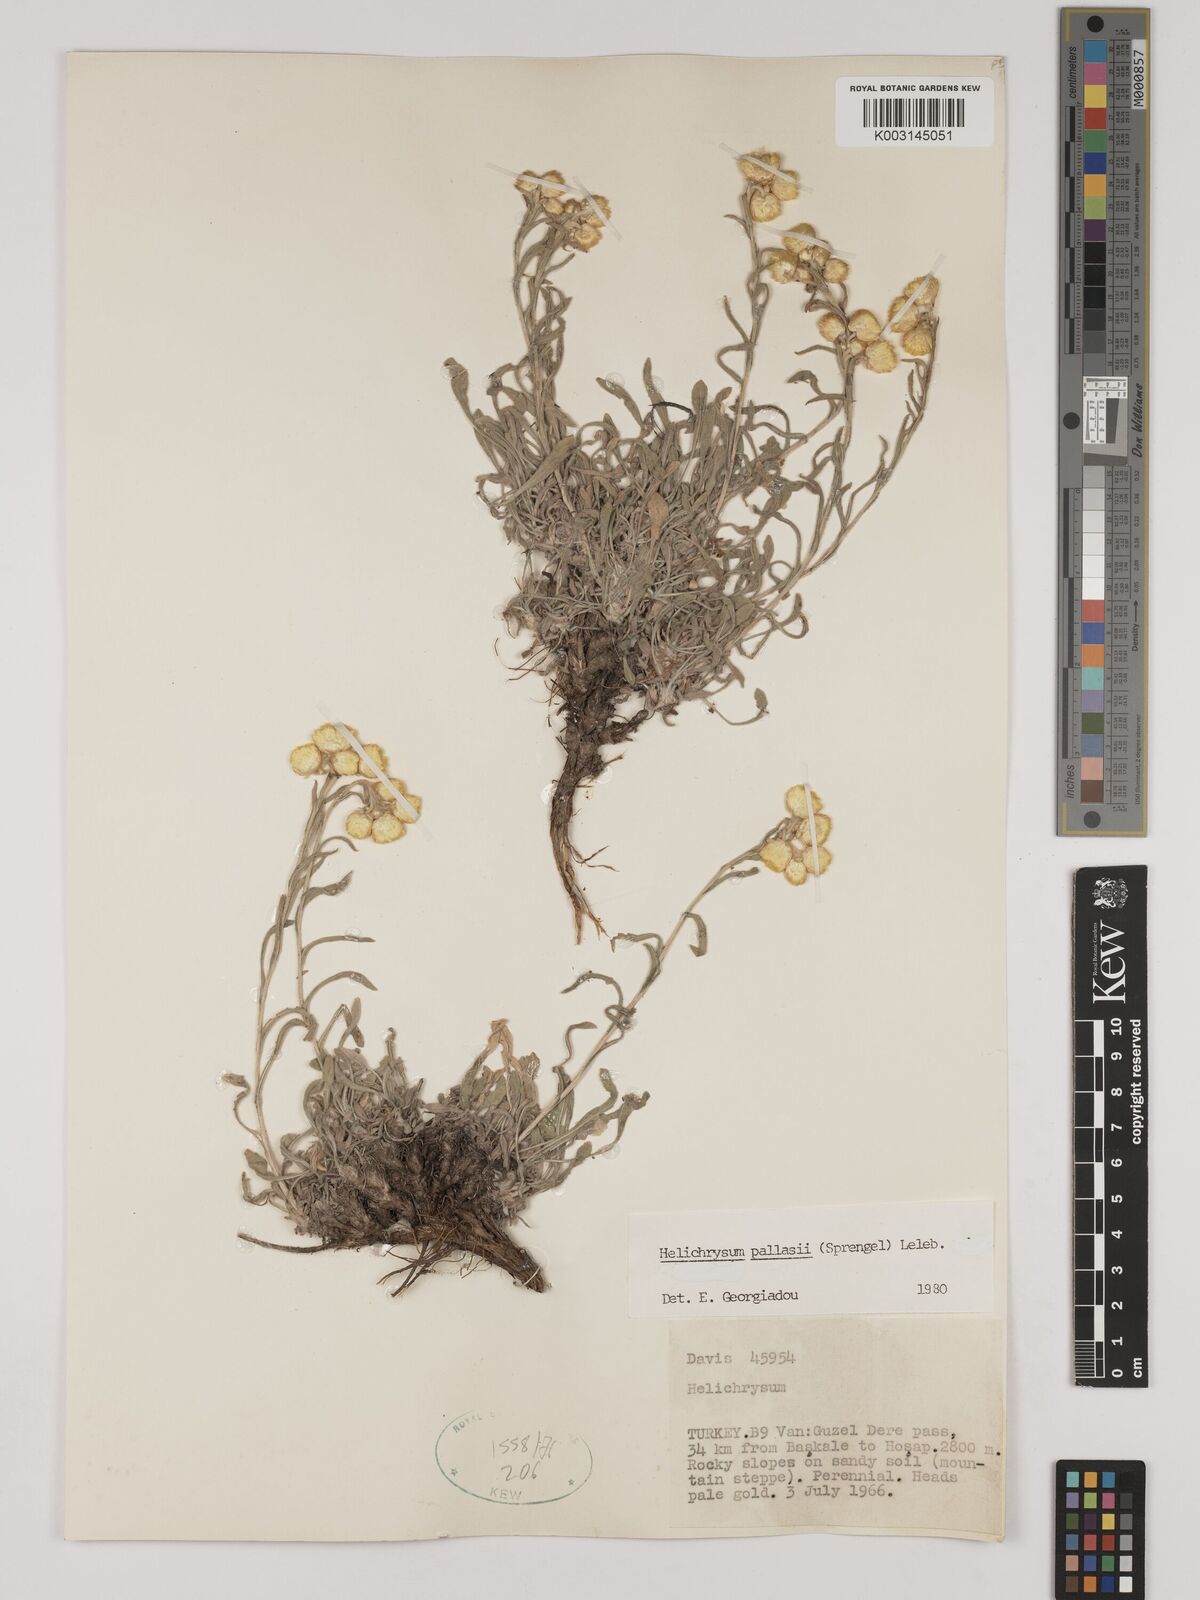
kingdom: Plantae
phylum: Tracheophyta
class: Magnoliopsida
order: Asterales
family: Asteraceae
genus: Helichrysum
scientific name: Helichrysum pallasii
